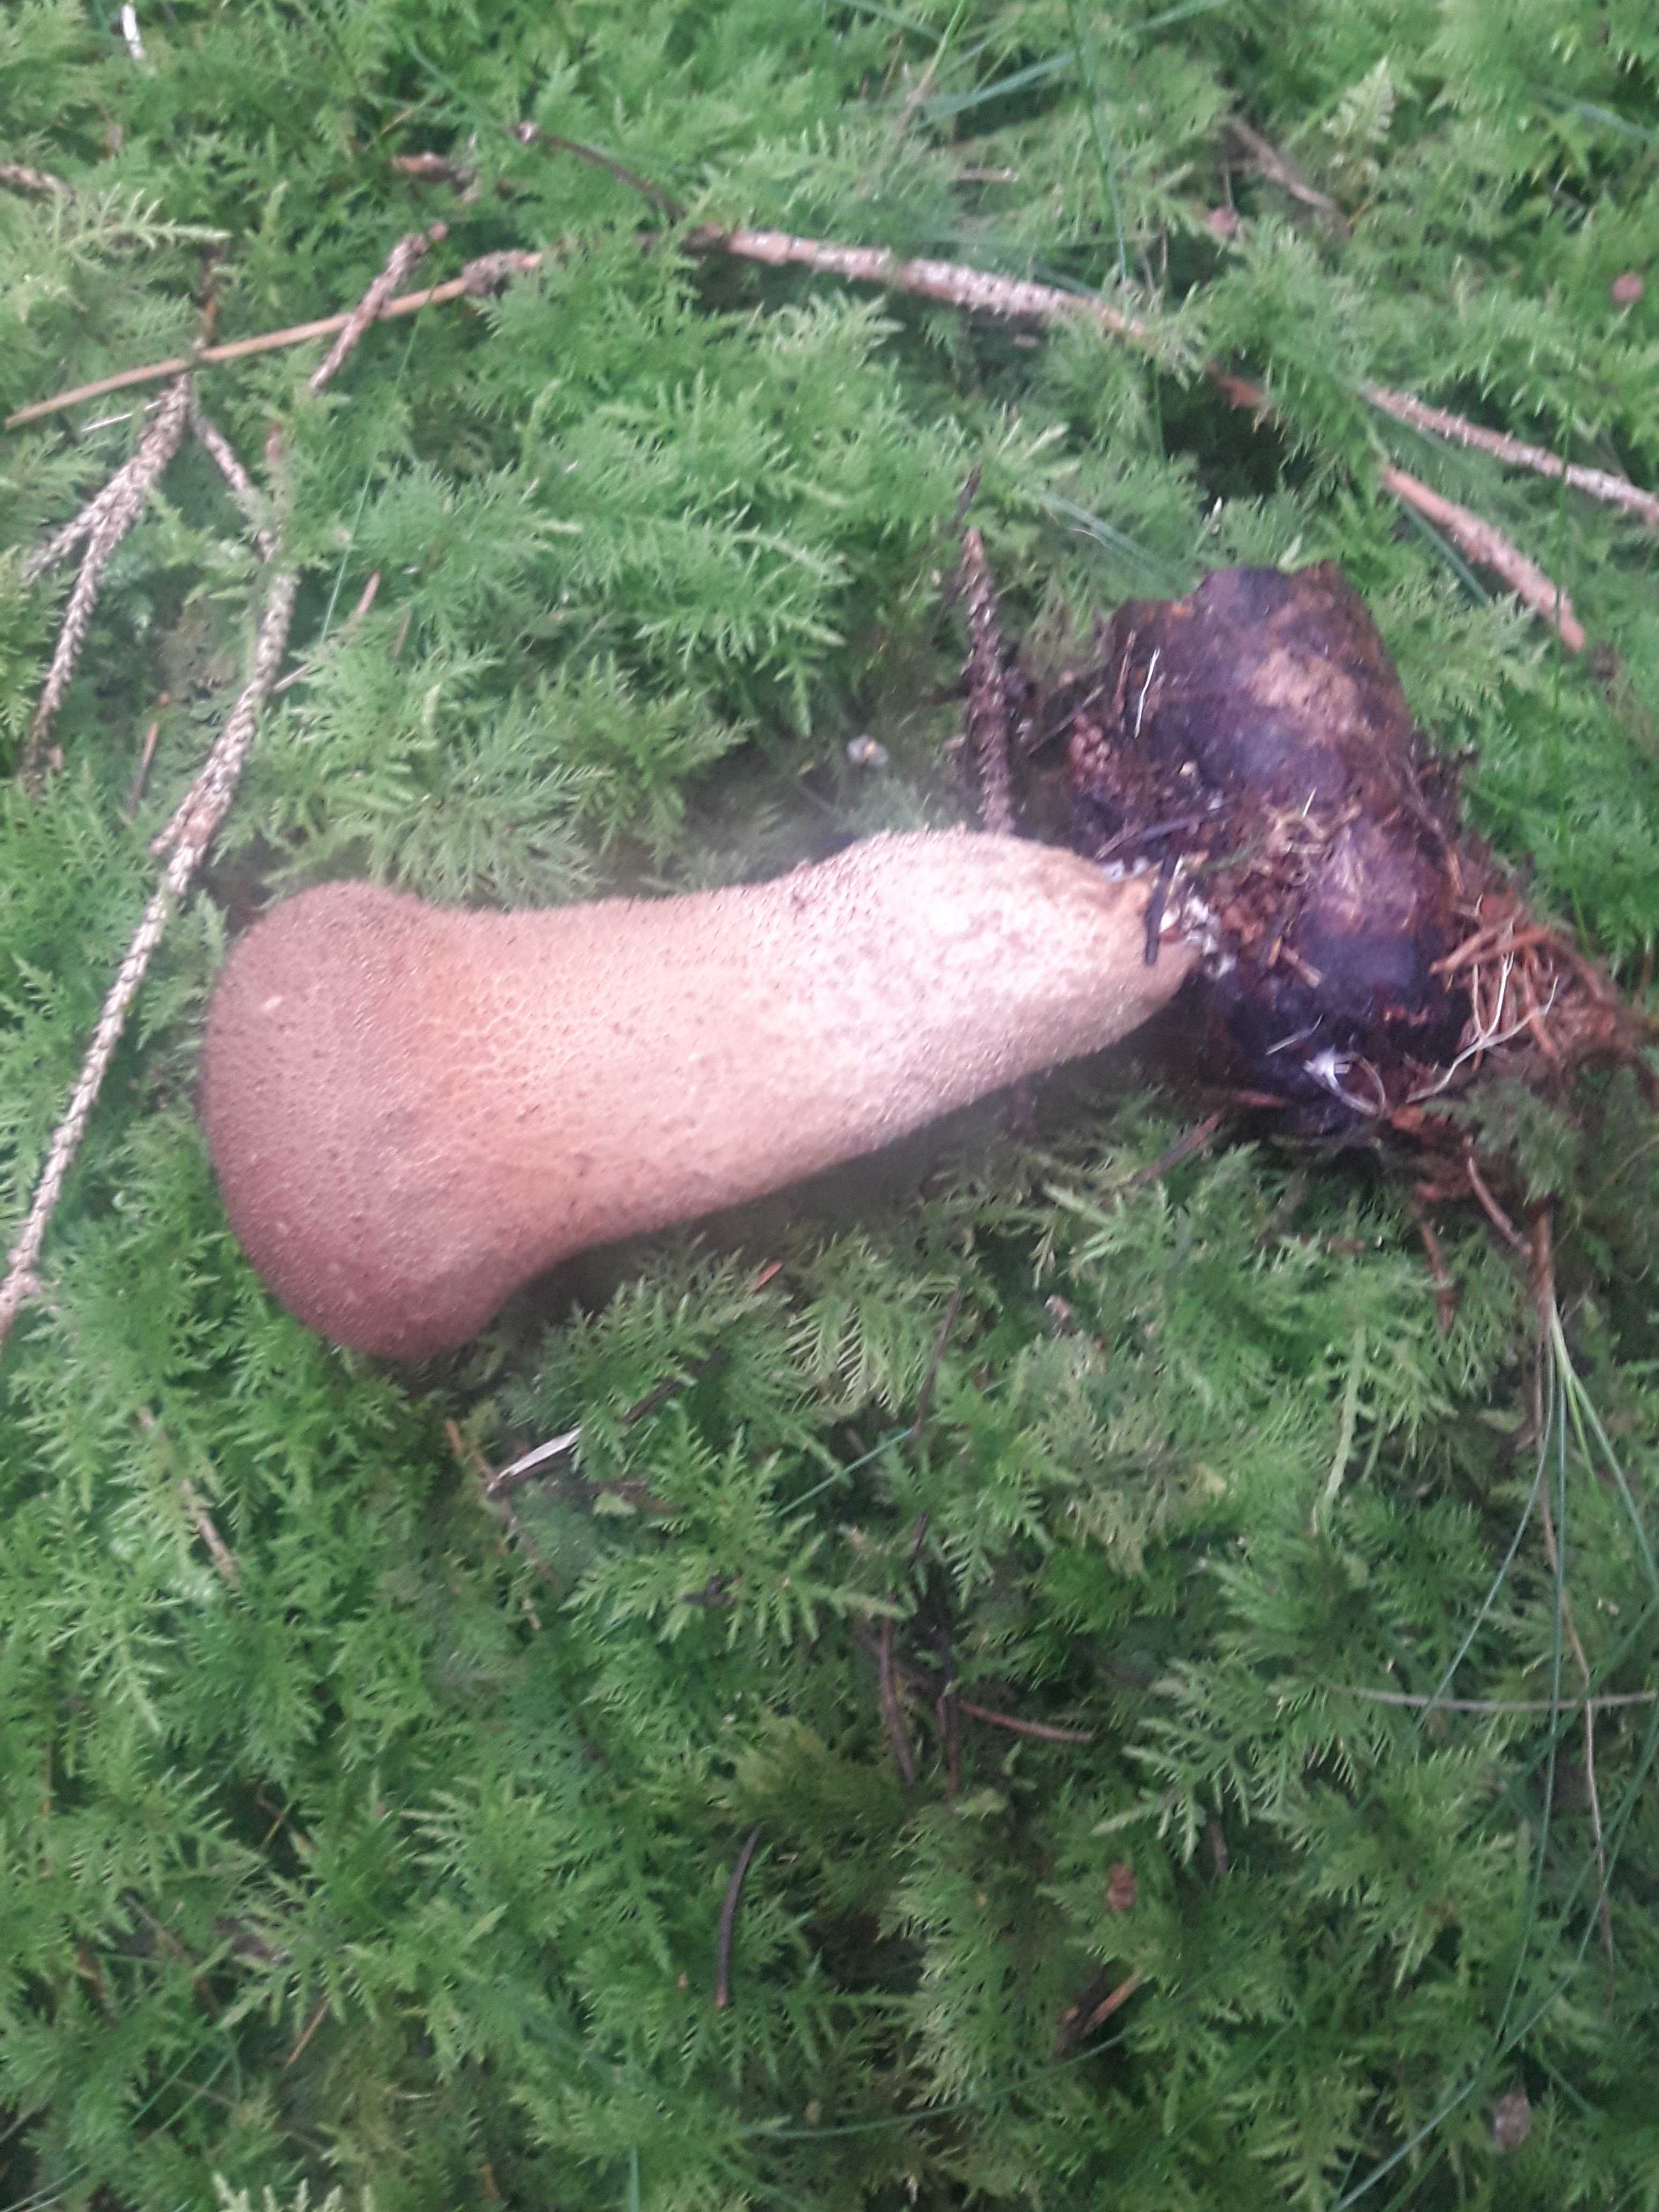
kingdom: Fungi
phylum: Basidiomycota
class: Agaricomycetes
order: Agaricales
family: Agaricaceae
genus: Lycoperdon
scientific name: Lycoperdon
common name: støvbold
